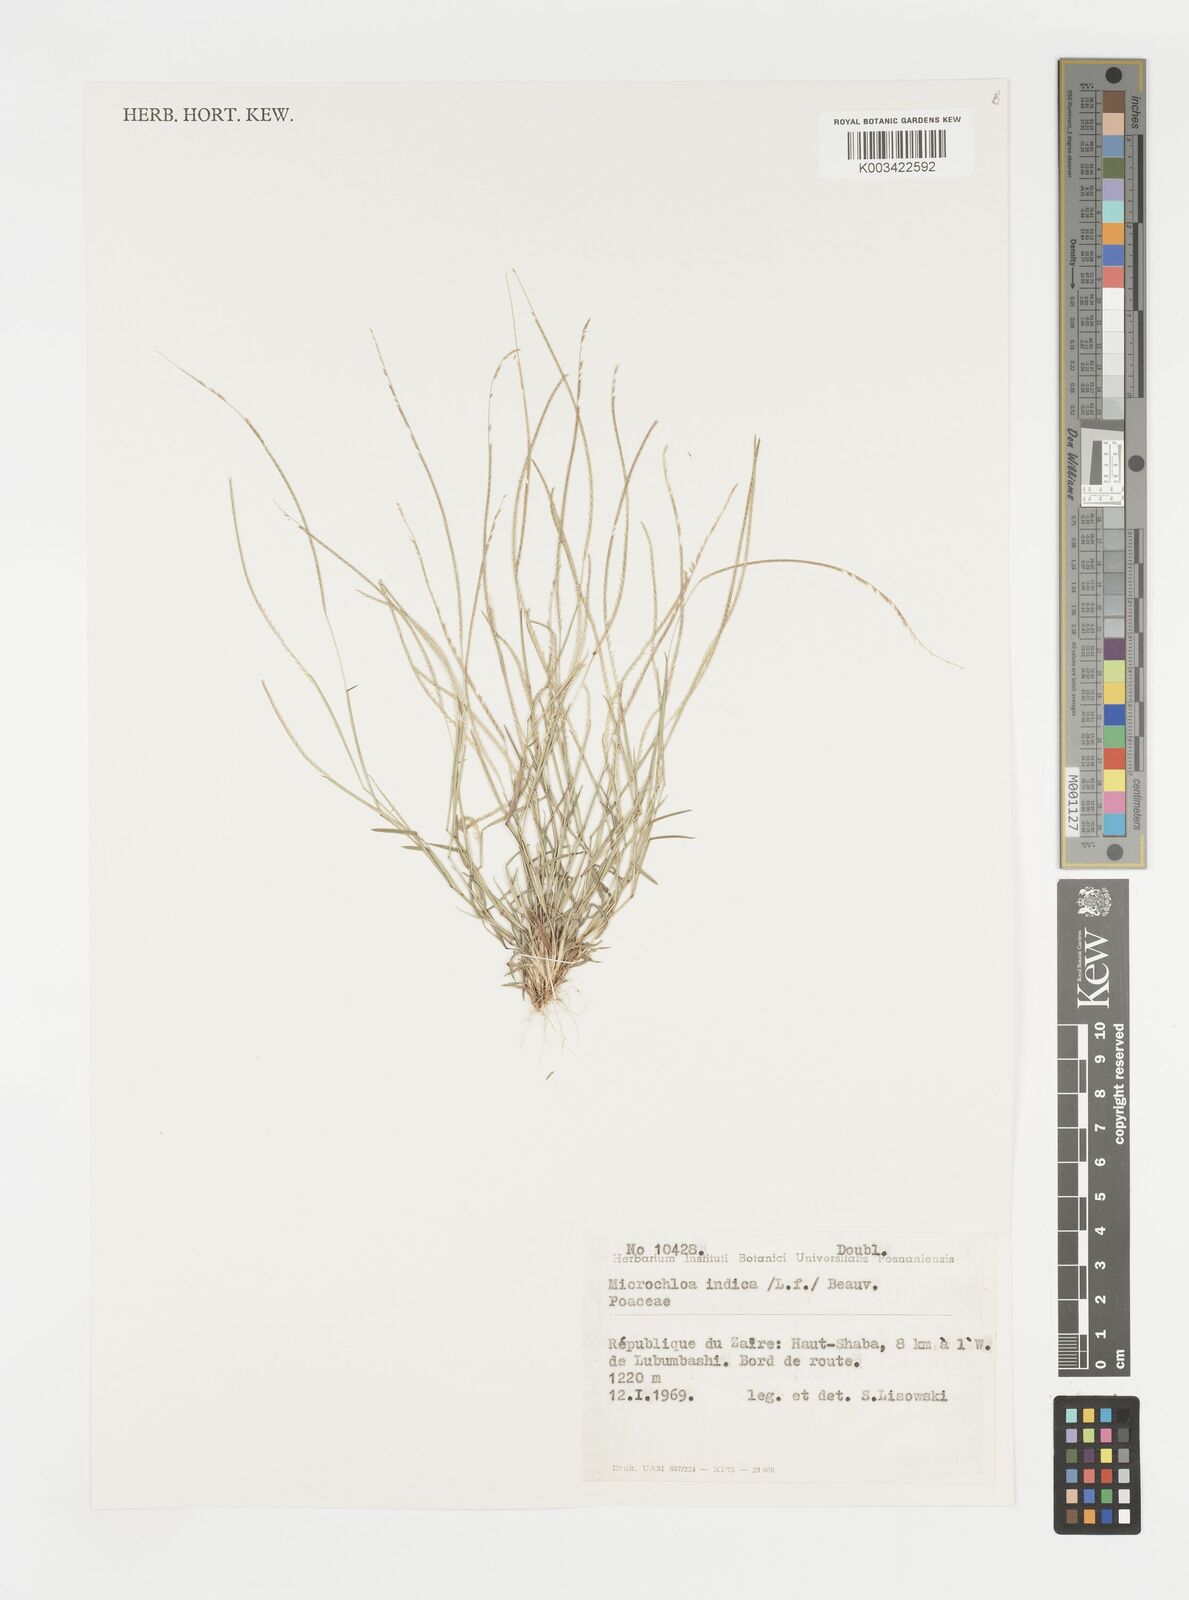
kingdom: Plantae
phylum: Tracheophyta
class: Liliopsida
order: Poales
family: Poaceae
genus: Microchloa
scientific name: Microchloa indica
